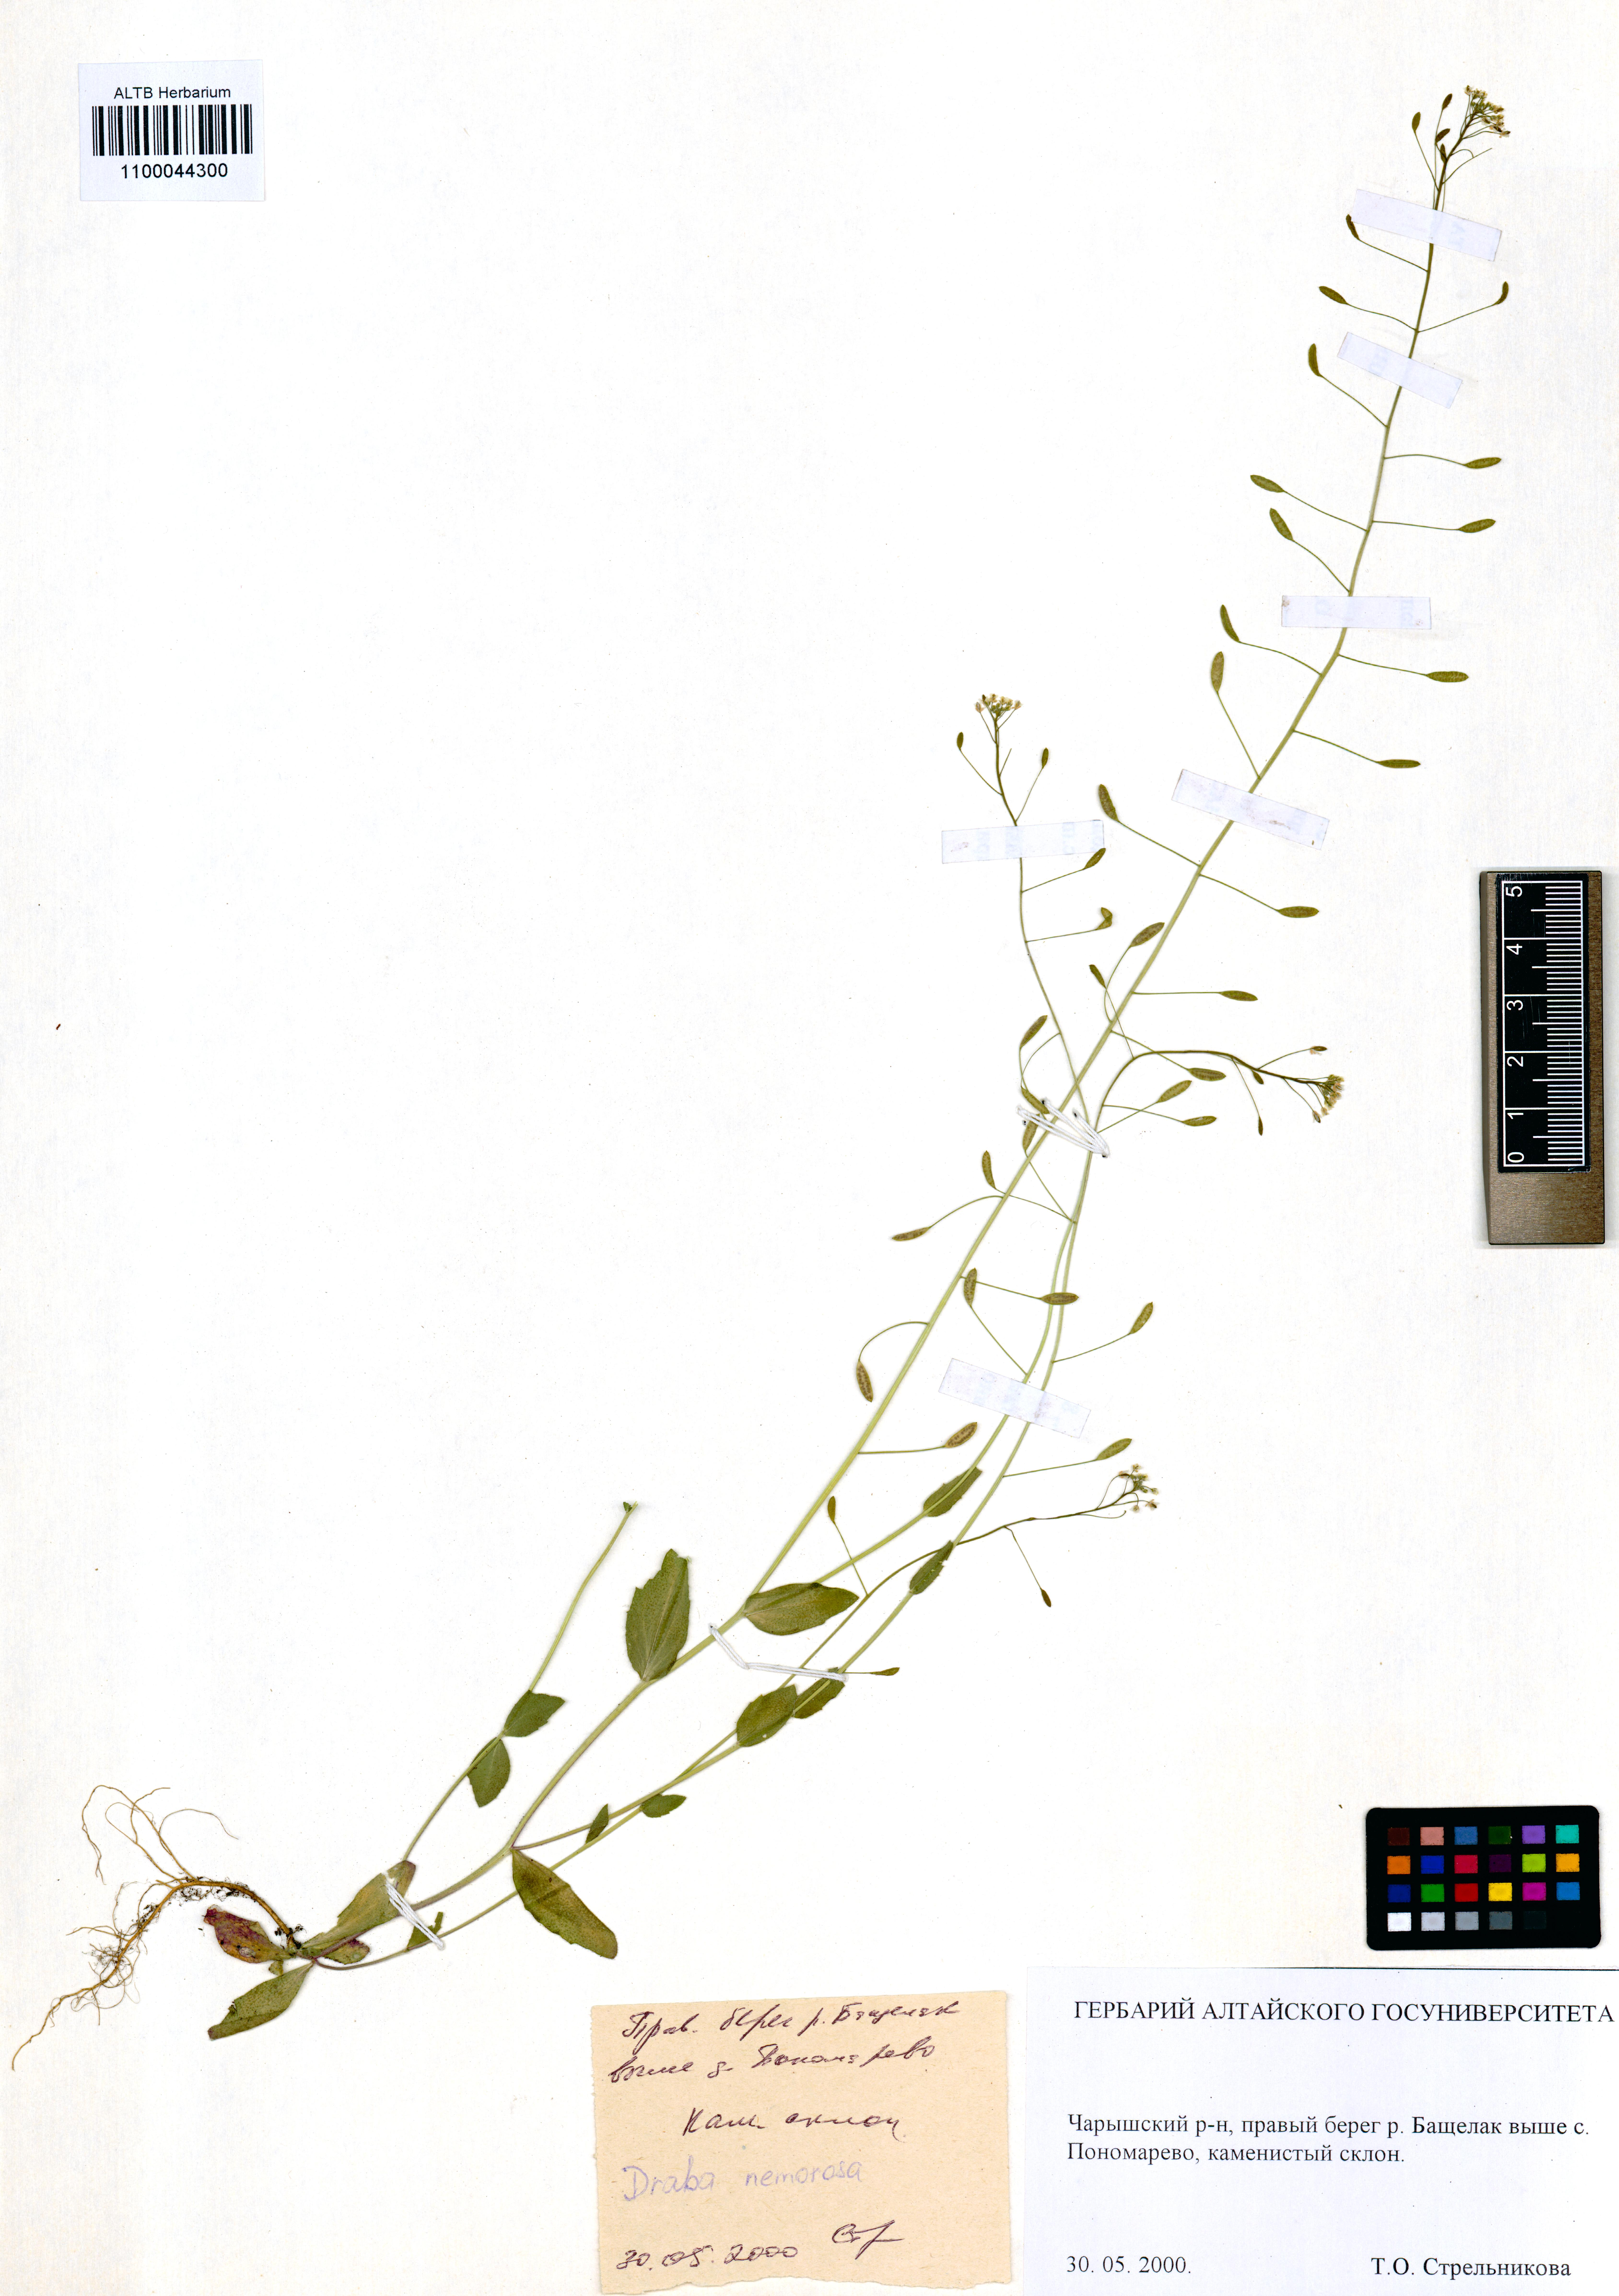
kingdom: Plantae
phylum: Tracheophyta
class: Magnoliopsida
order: Brassicales
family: Brassicaceae
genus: Draba
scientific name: Draba nemorosa
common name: Wood whitlow-grass
